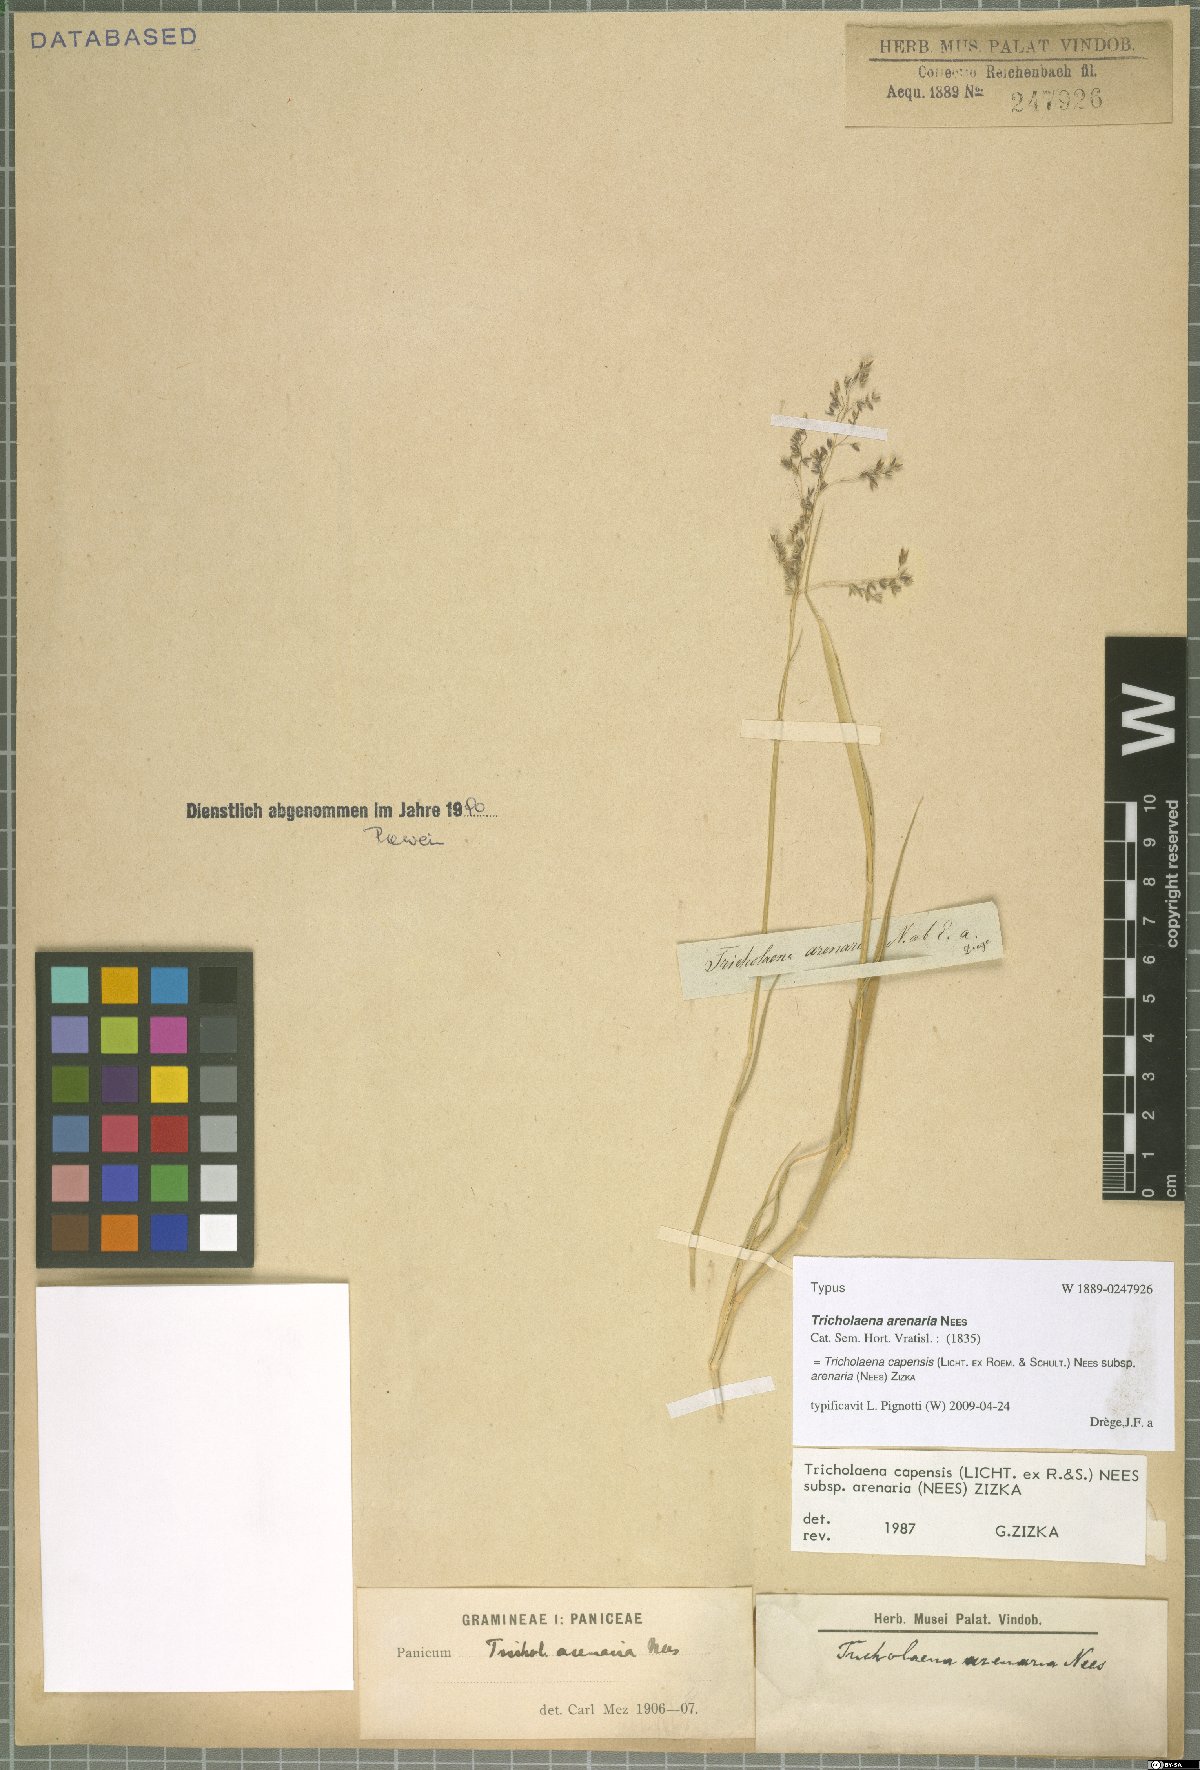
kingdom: Plantae
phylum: Tracheophyta
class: Liliopsida
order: Poales
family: Poaceae
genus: Tricholaena
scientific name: Tricholaena capensis
